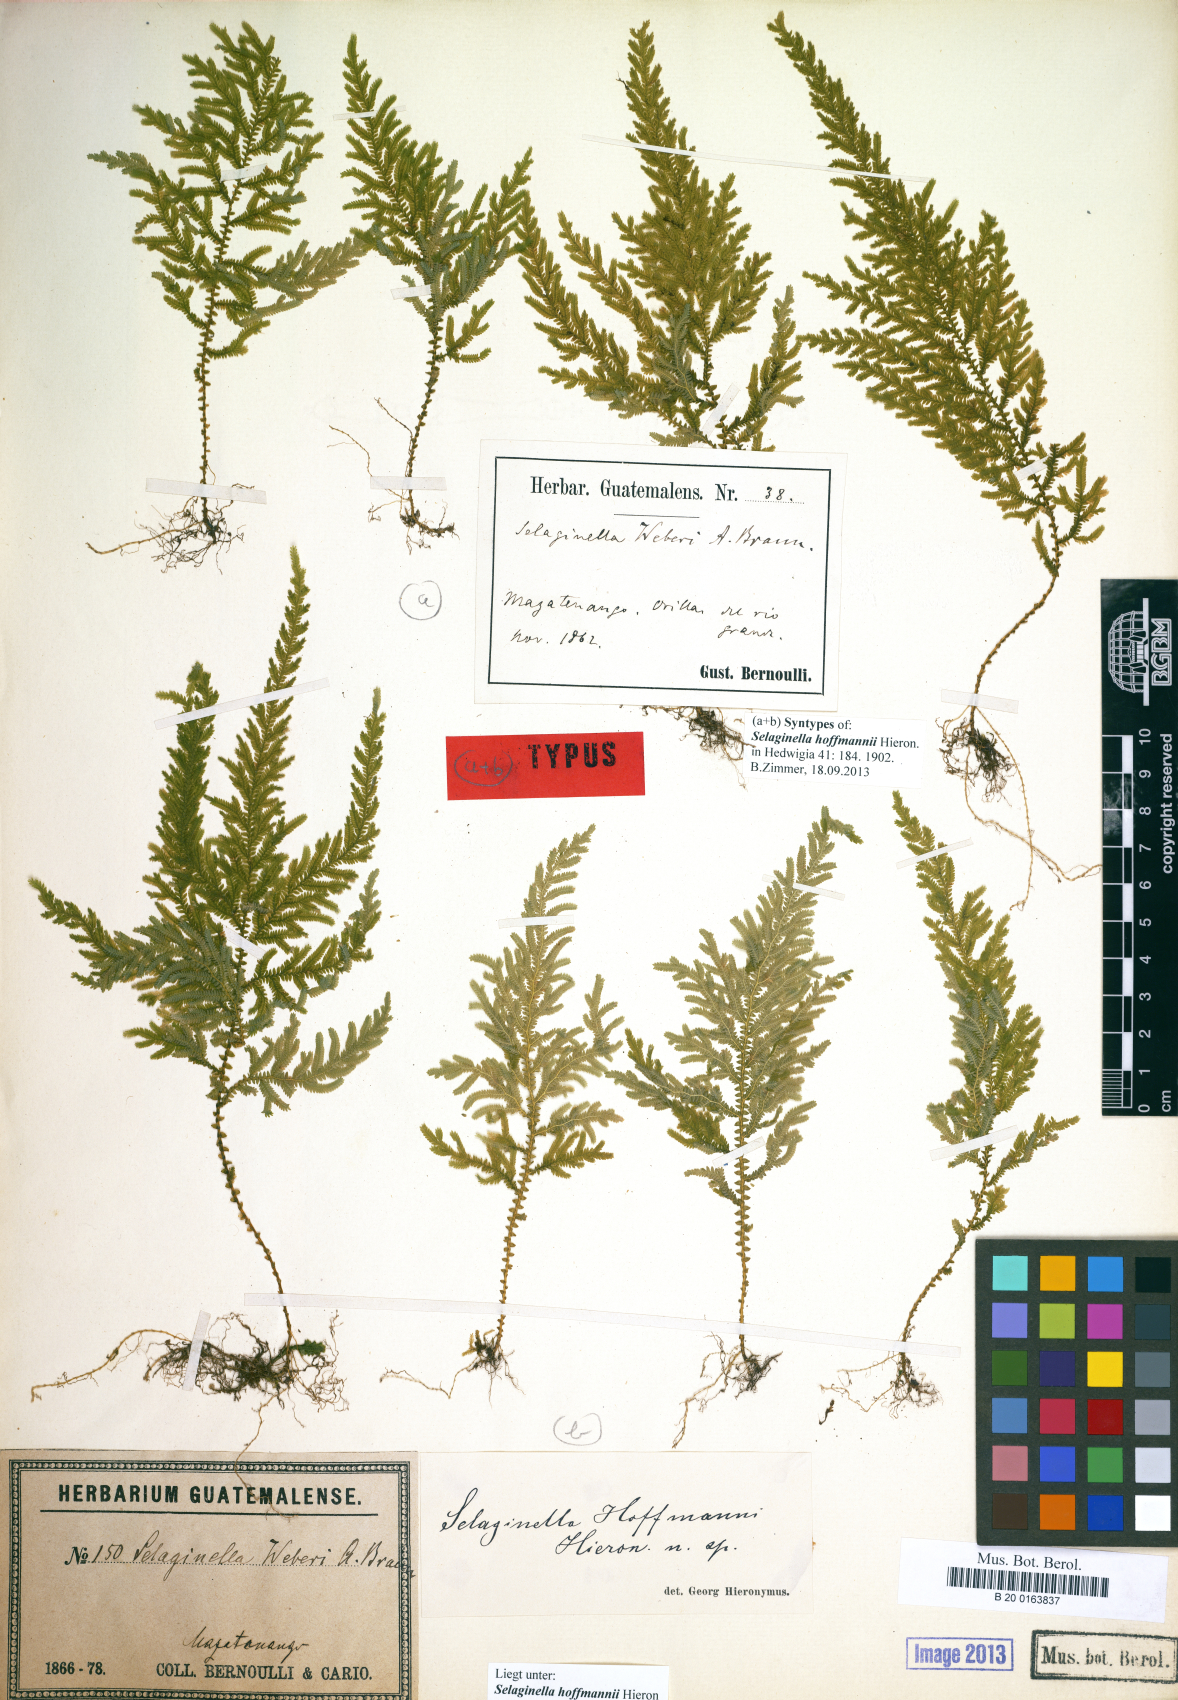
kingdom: Plantae
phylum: Tracheophyta
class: Lycopodiopsida
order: Selaginellales
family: Selaginellaceae
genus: Selaginella
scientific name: Selaginella hoffmannii
